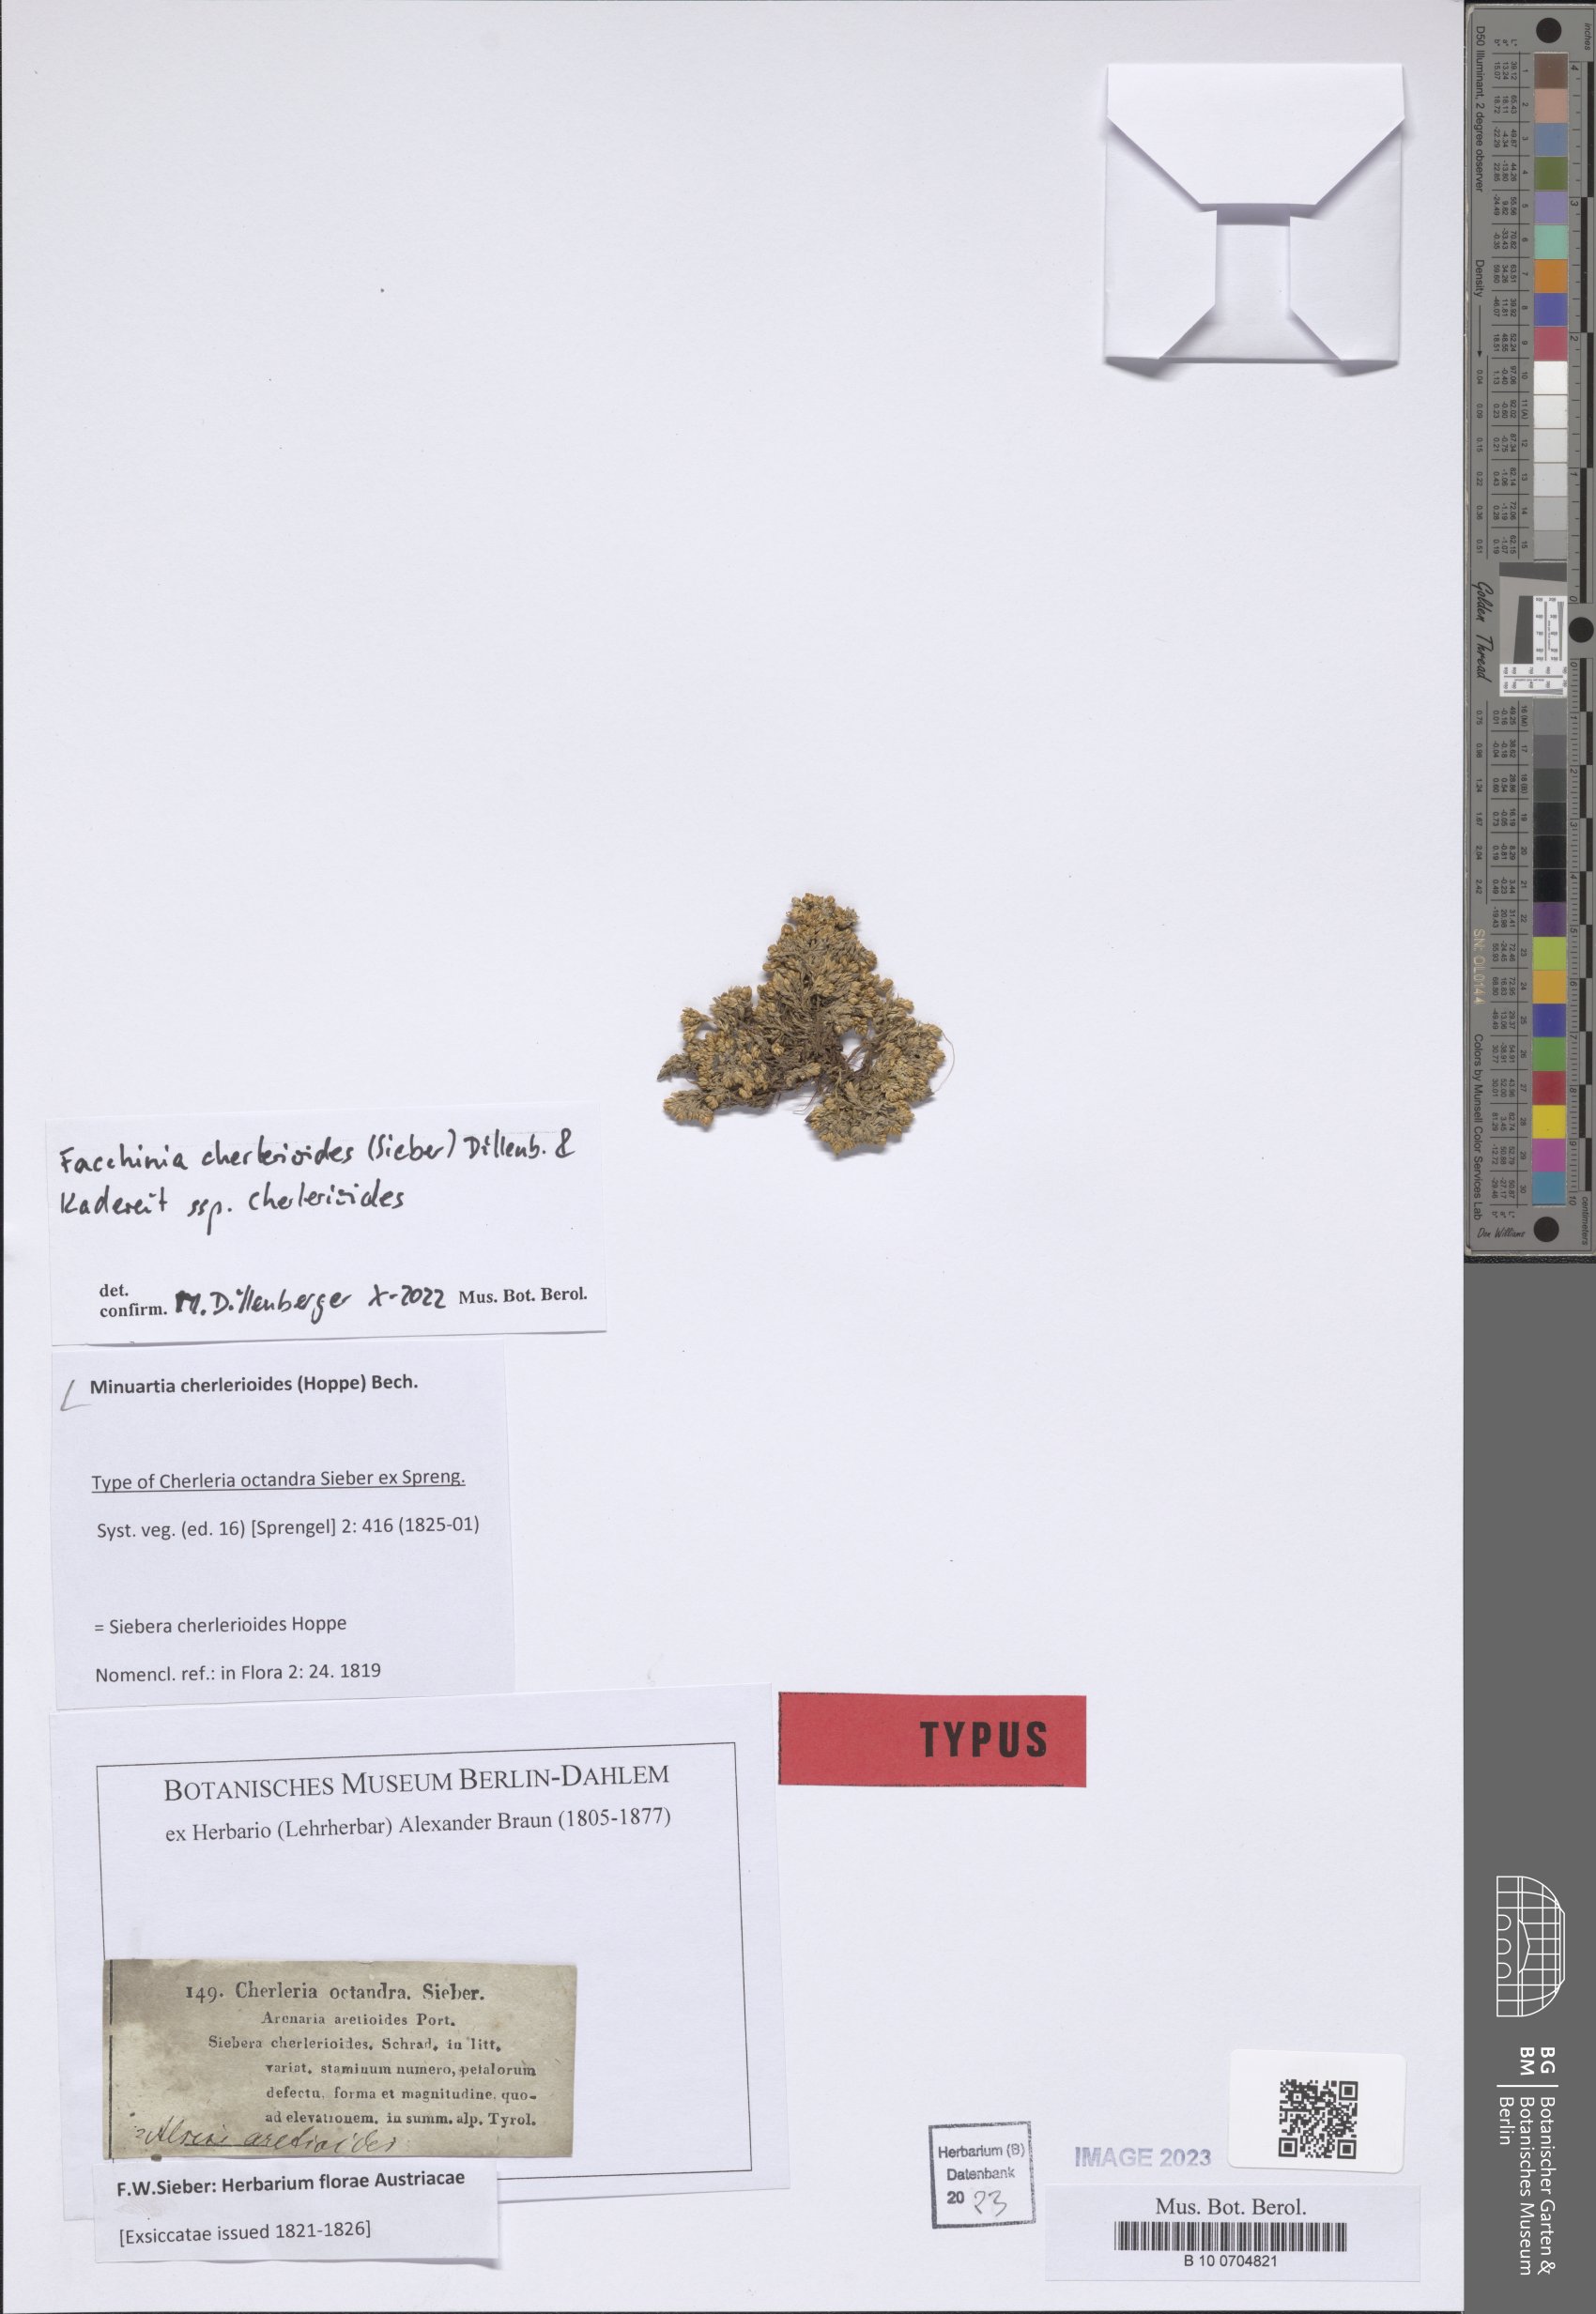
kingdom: Plantae
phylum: Tracheophyta
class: Magnoliopsida
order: Caryophyllales
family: Caryophyllaceae
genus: Facchinia
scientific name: Facchinia cherlerioides
